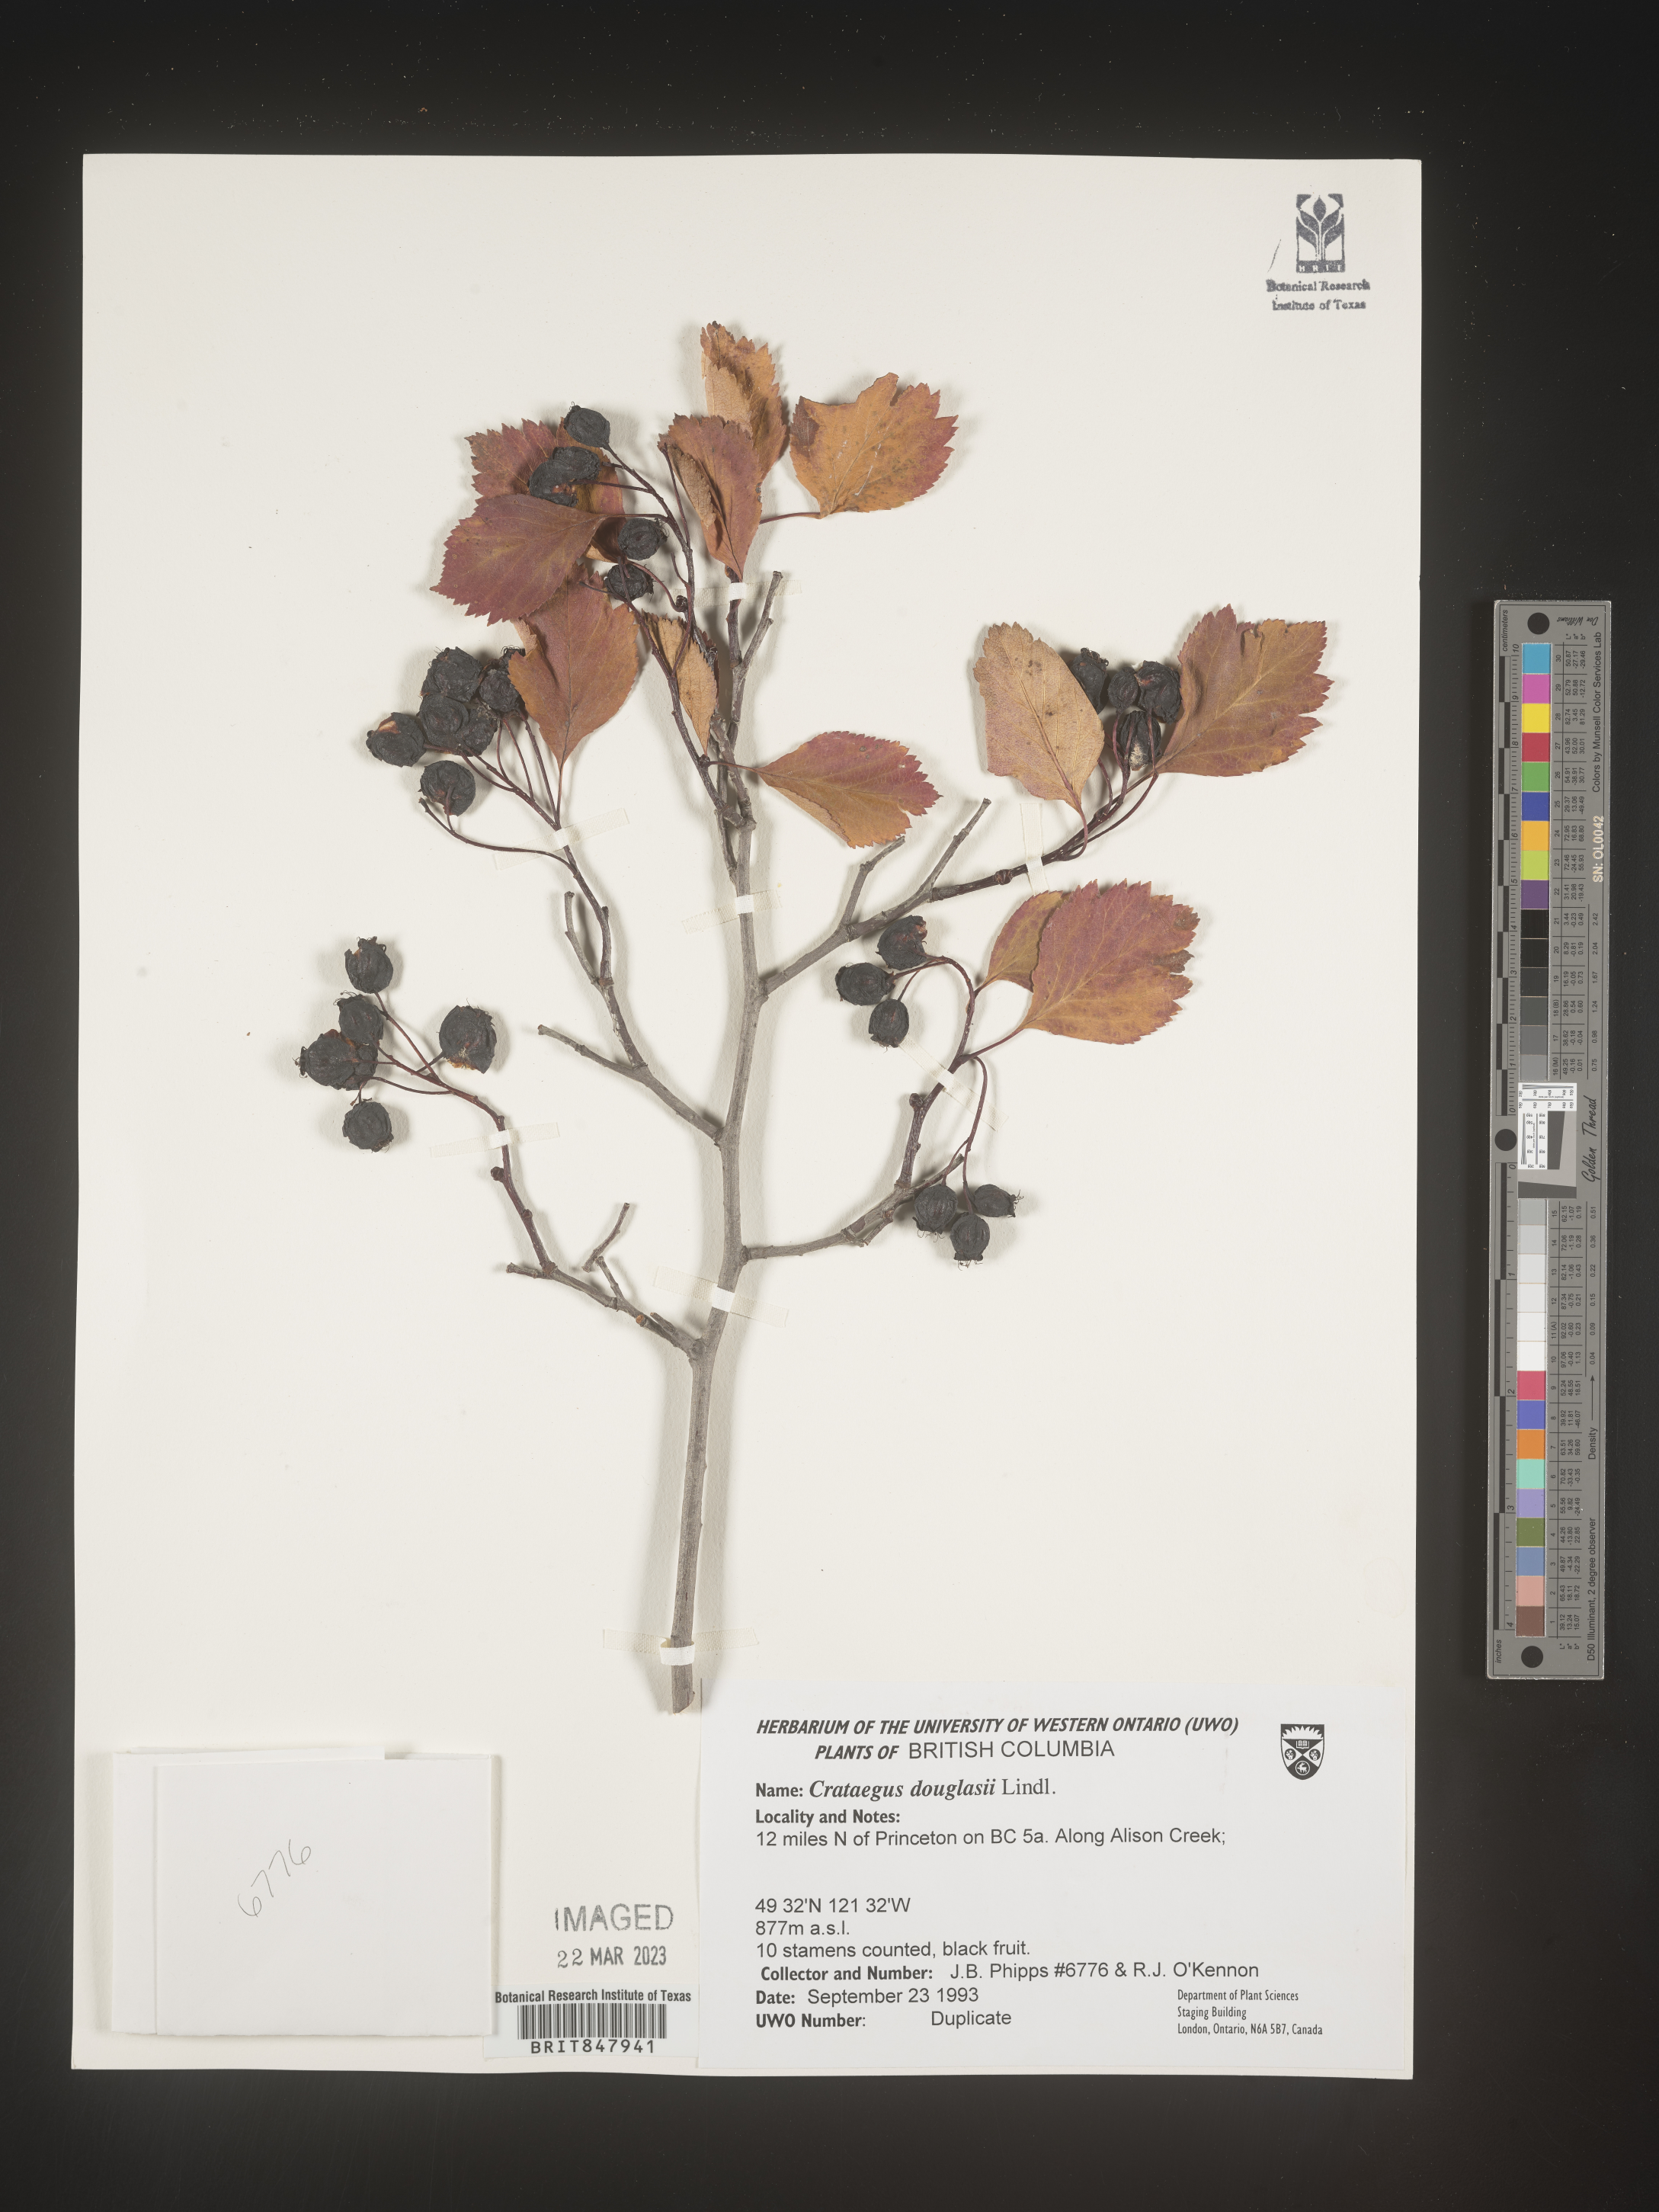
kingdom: Plantae
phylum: Tracheophyta
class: Magnoliopsida
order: Rosales
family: Rosaceae
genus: Crataegus
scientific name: Crataegus douglasii
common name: Black hawthorn
